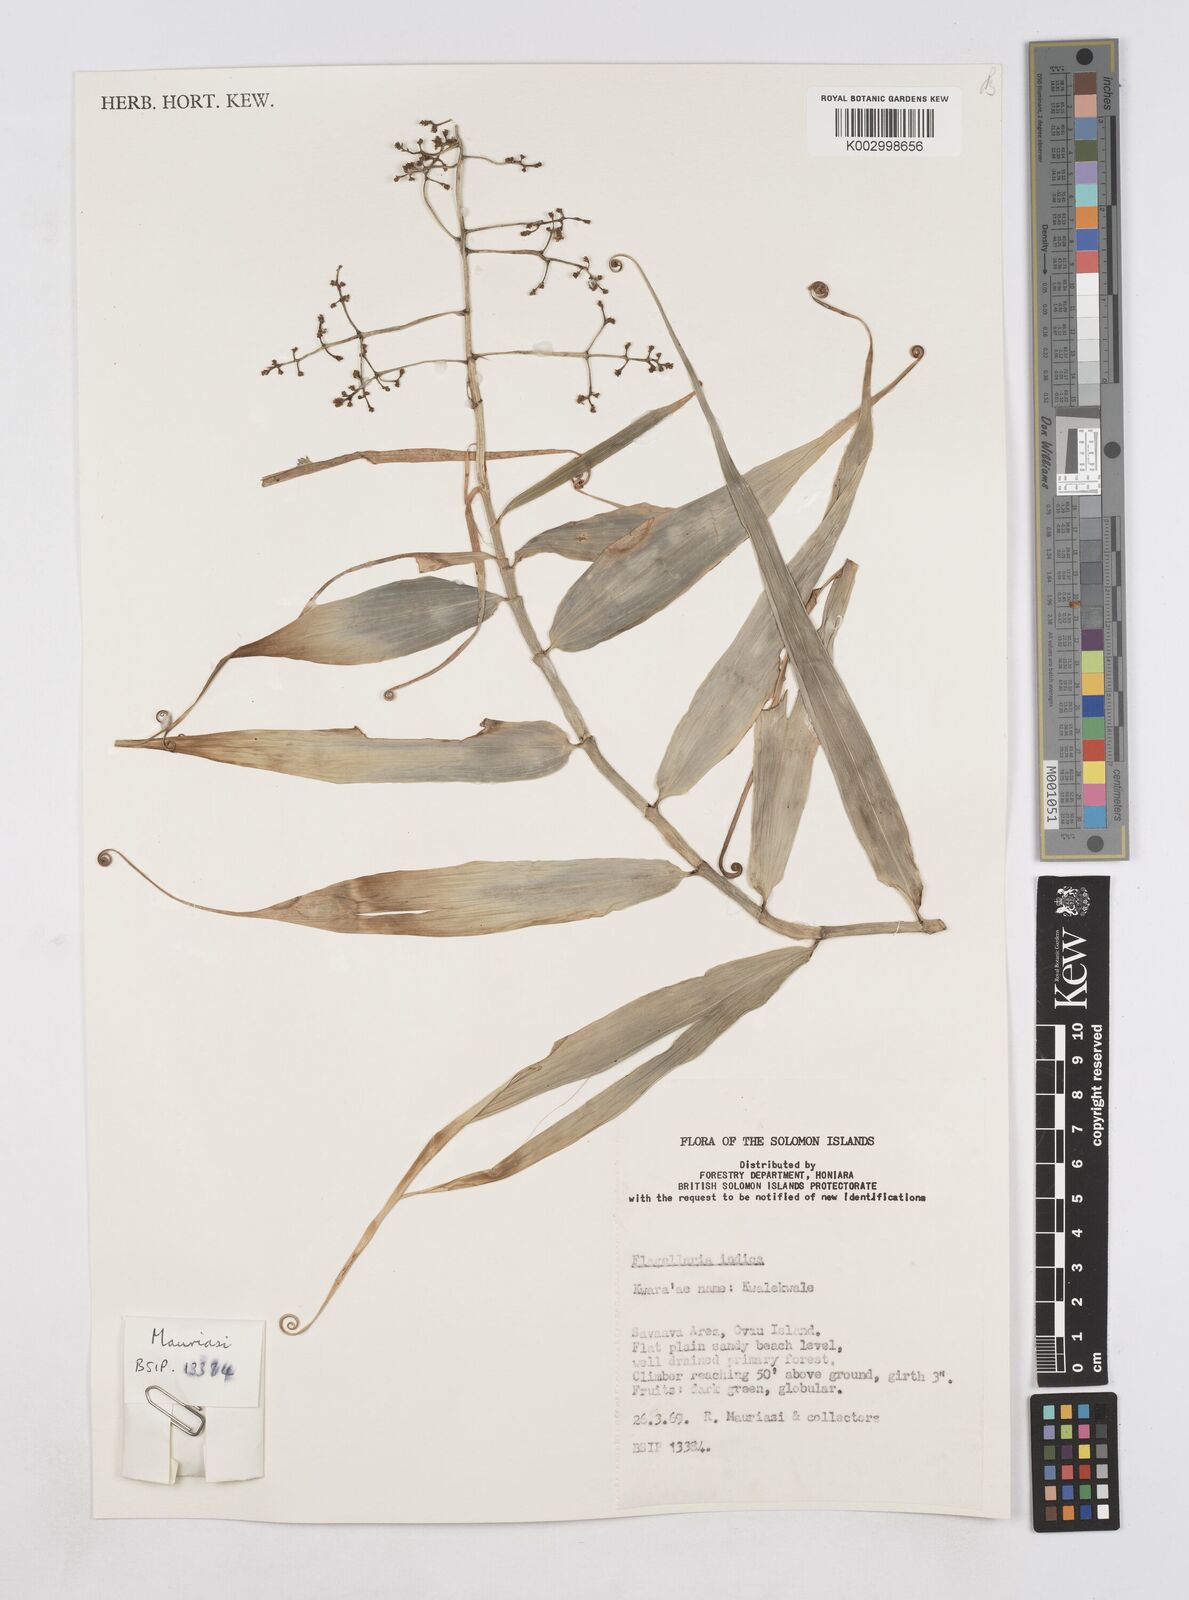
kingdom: Plantae
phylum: Tracheophyta
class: Liliopsida
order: Poales
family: Flagellariaceae
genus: Flagellaria
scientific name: Flagellaria indica
